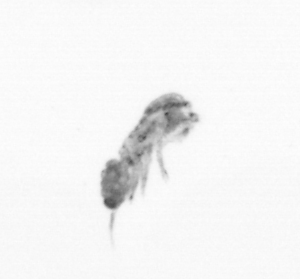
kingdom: Animalia
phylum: Arthropoda
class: Copepoda
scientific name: Copepoda
